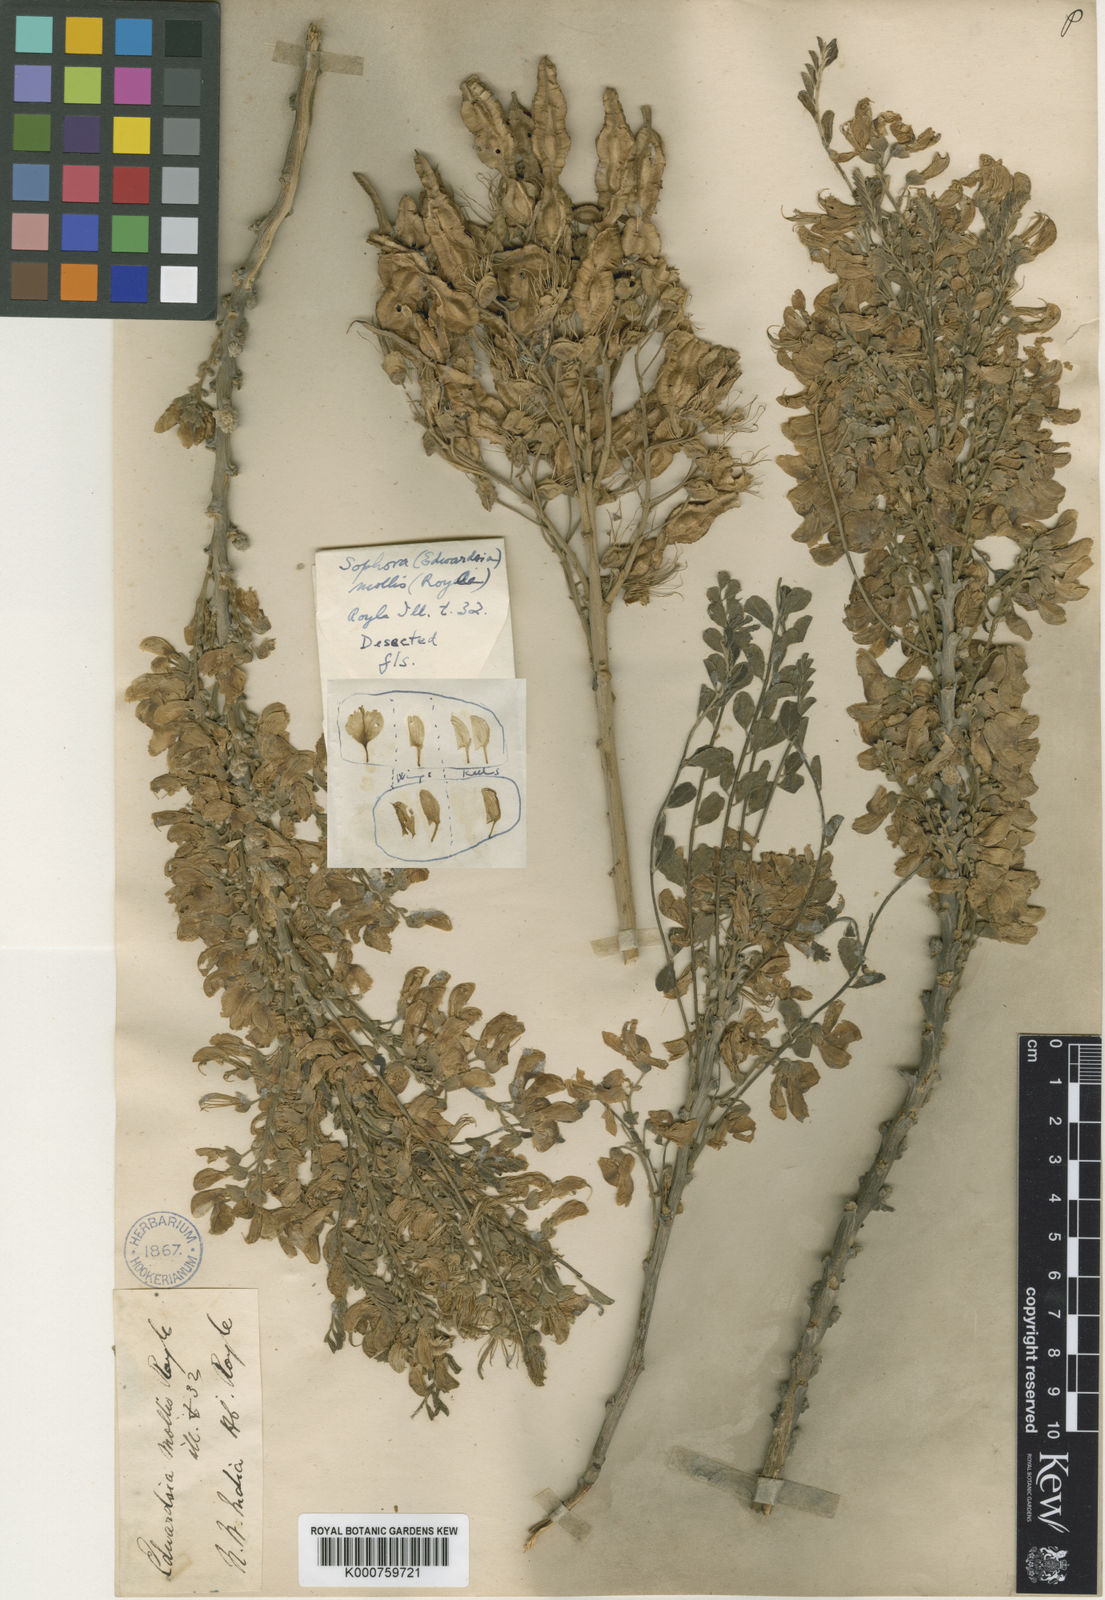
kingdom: Plantae
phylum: Tracheophyta
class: Magnoliopsida
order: Fabales
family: Fabaceae
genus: Sophora
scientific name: Sophora mollis
